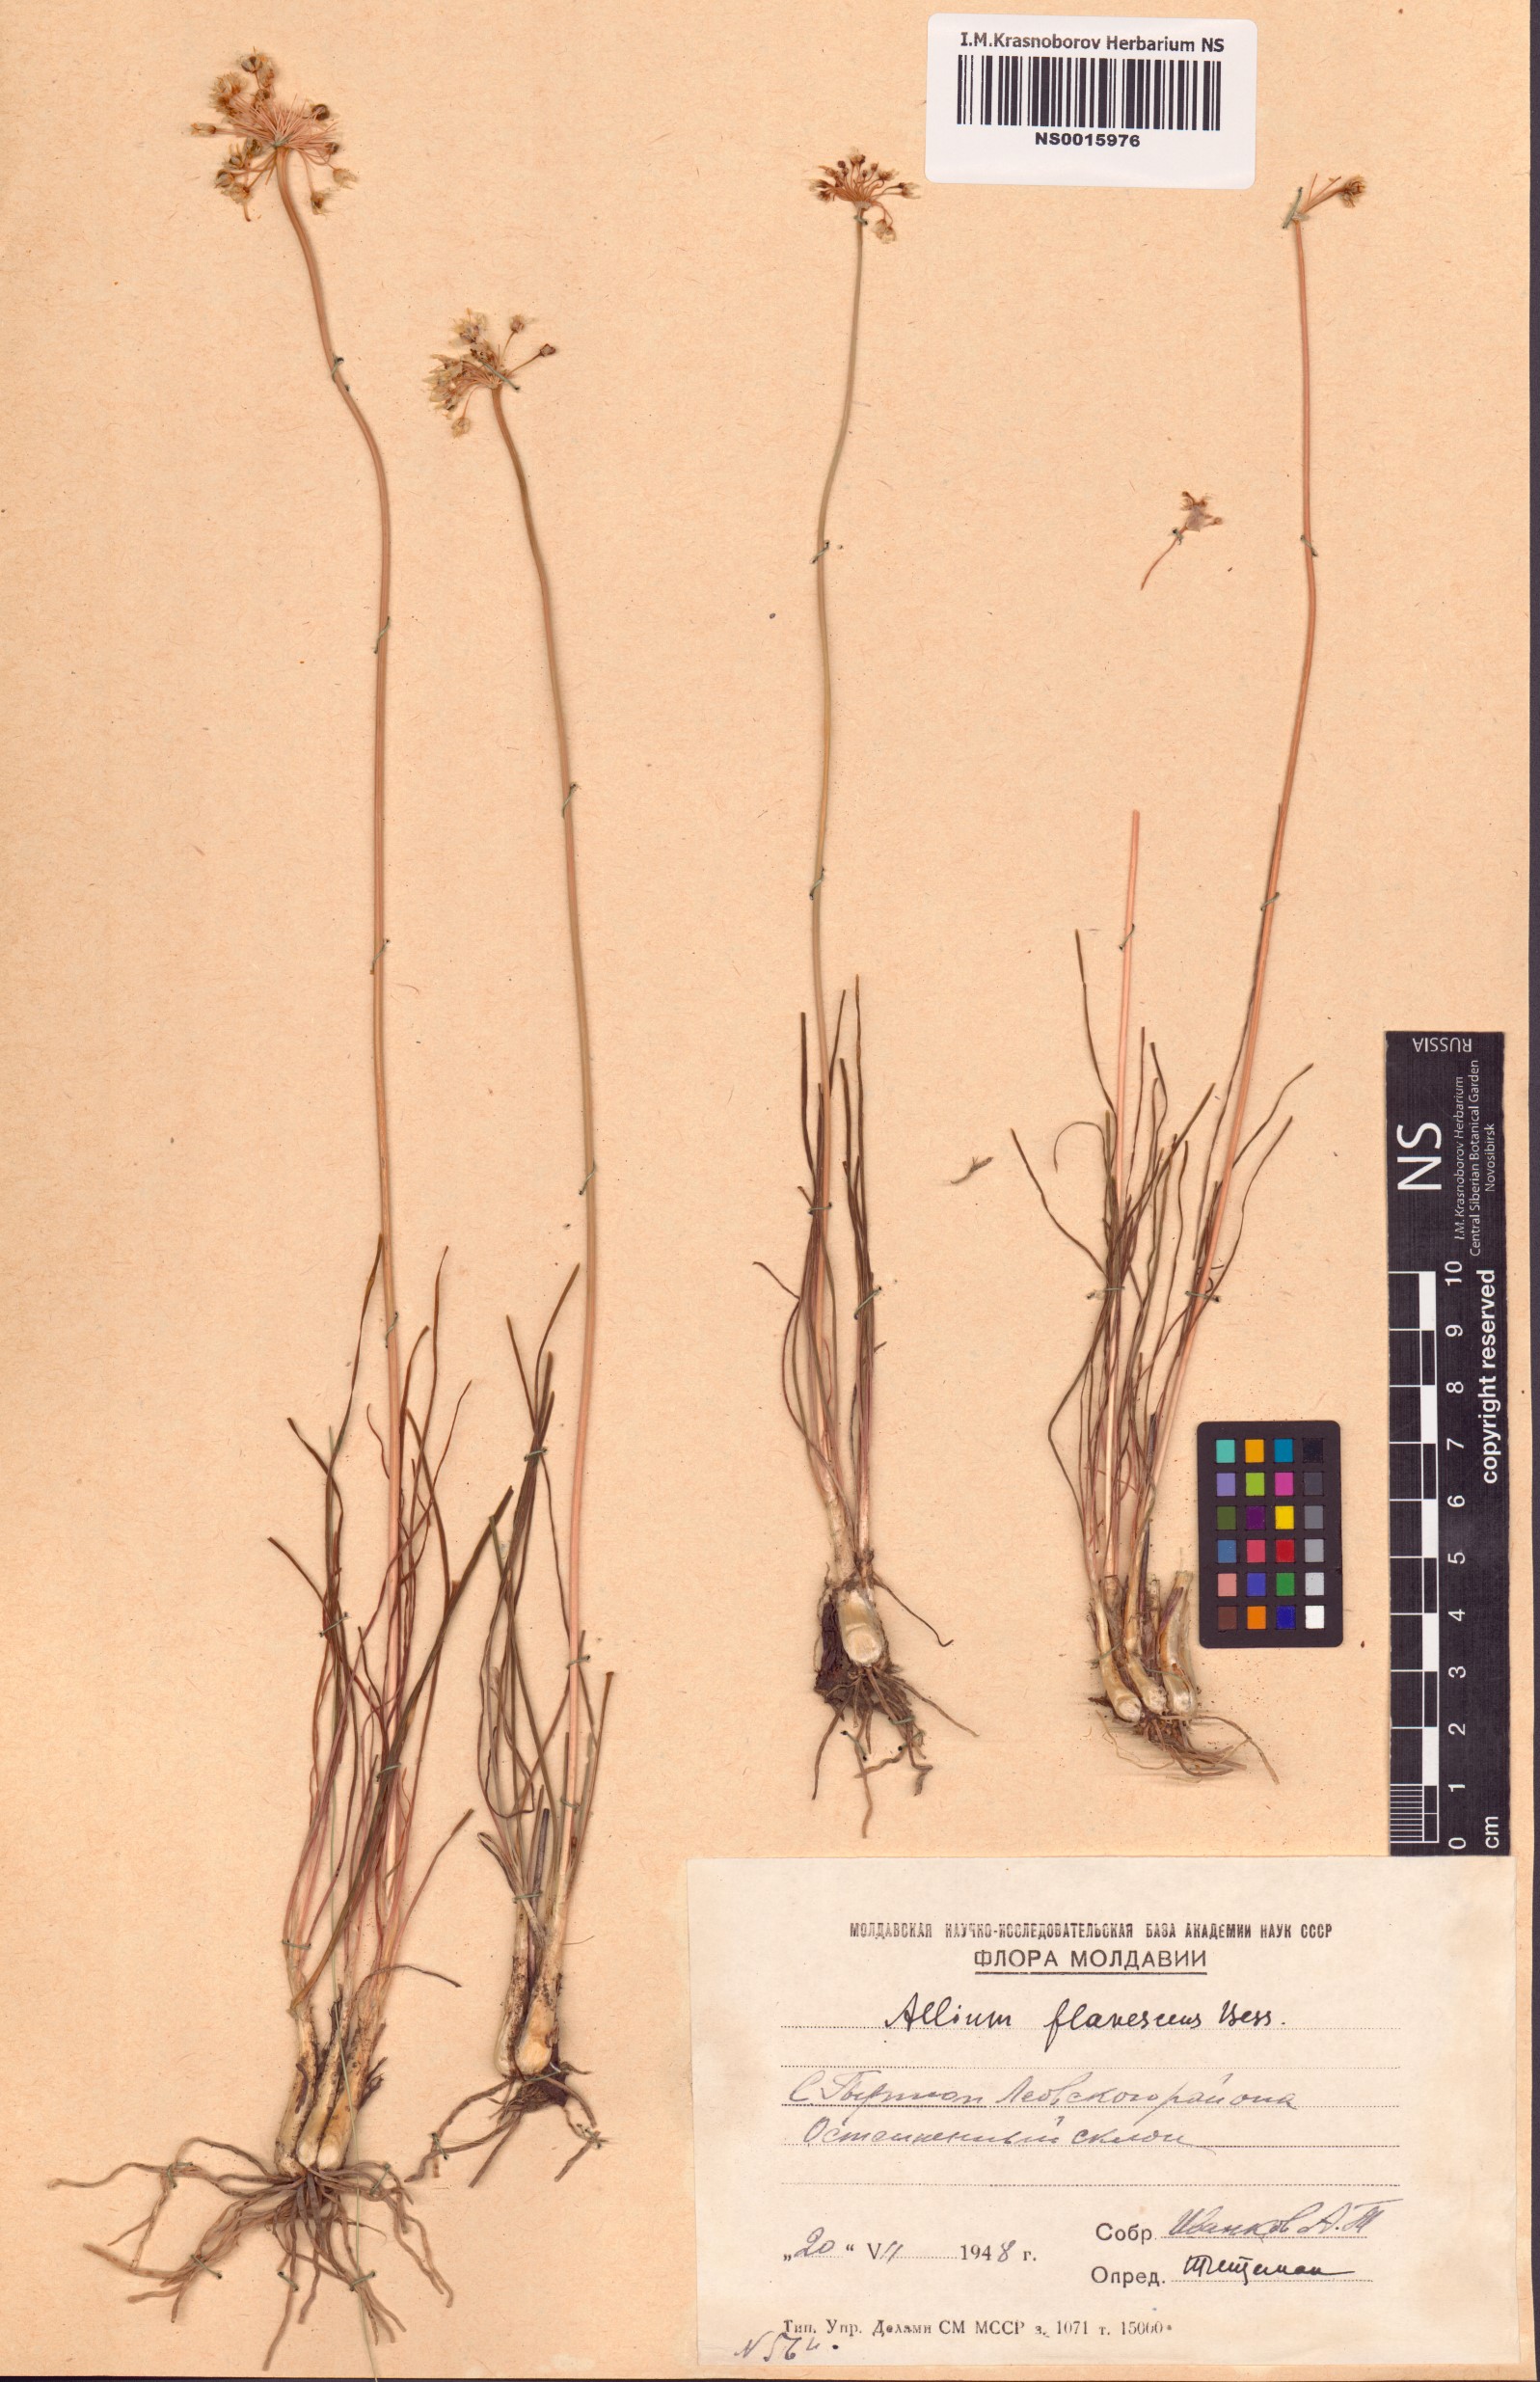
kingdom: Plantae
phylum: Tracheophyta
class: Liliopsida
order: Asparagales
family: Amaryllidaceae
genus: Allium
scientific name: Allium flavescens
